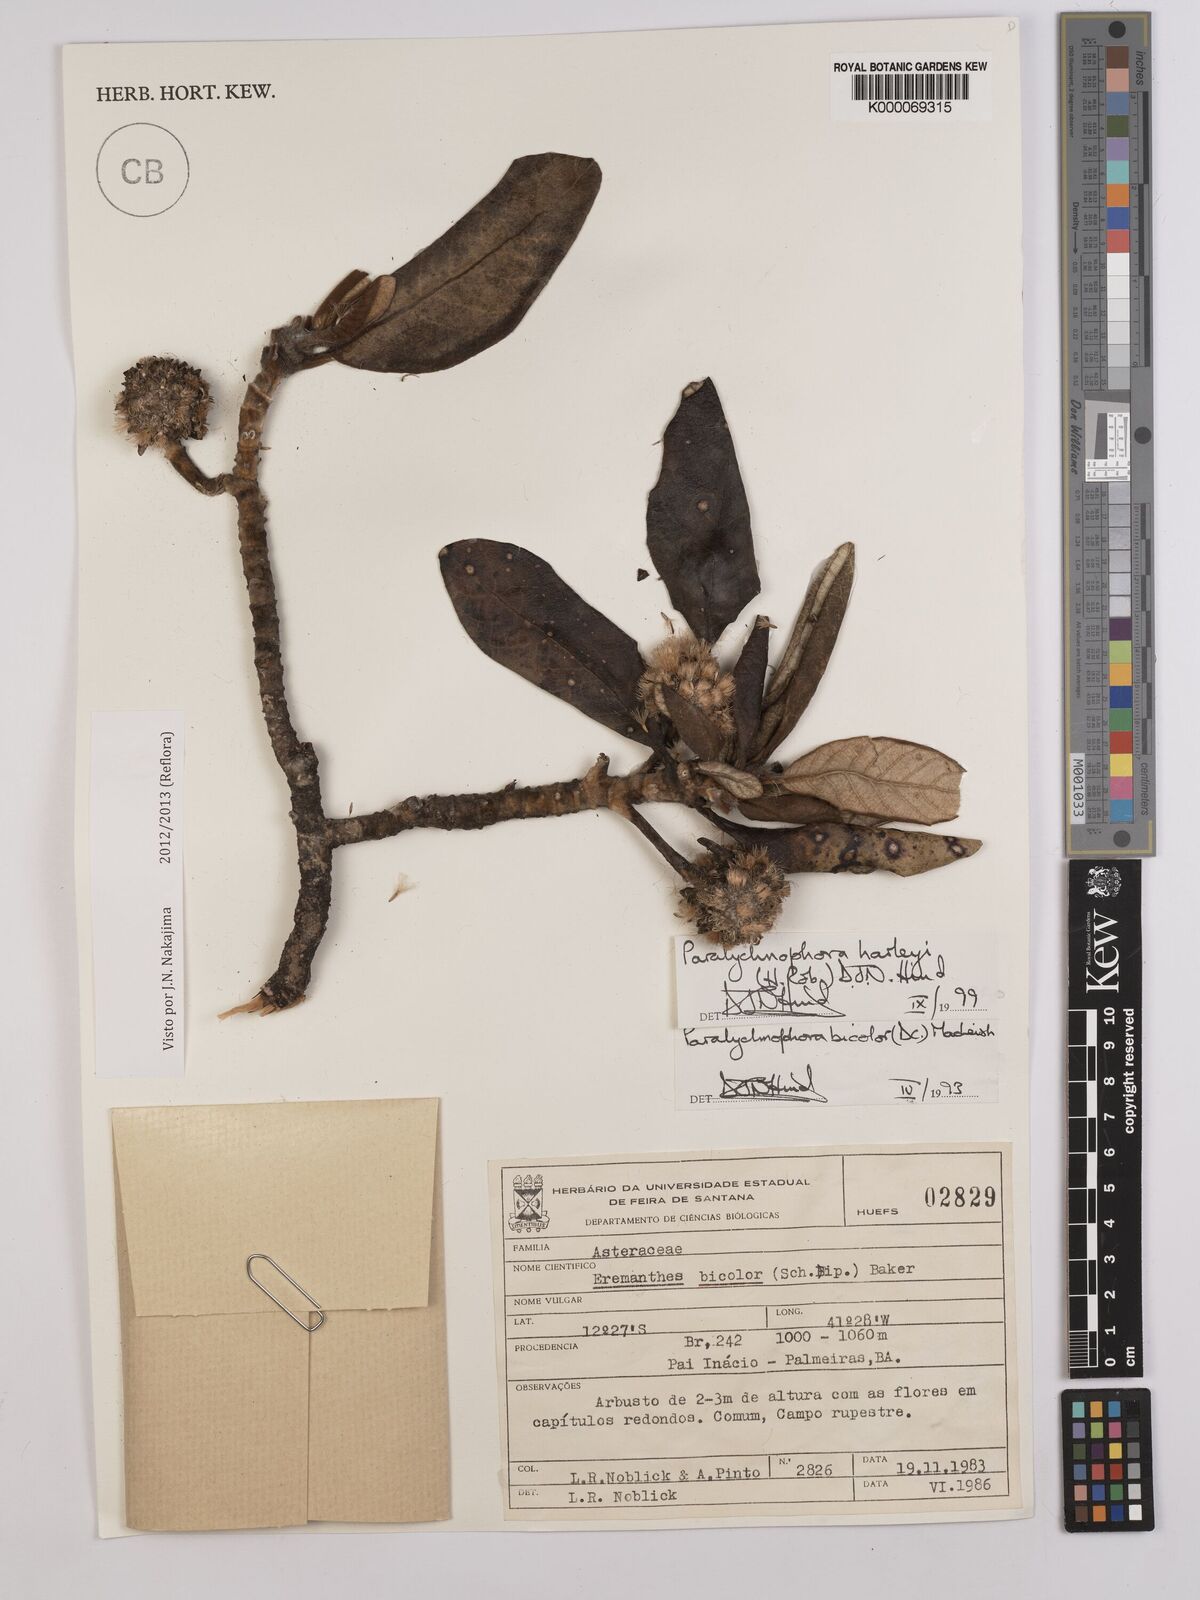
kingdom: Plantae
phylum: Tracheophyta
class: Magnoliopsida
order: Asterales
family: Asteraceae
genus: Paralychnophora
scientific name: Paralychnophora harleyi
